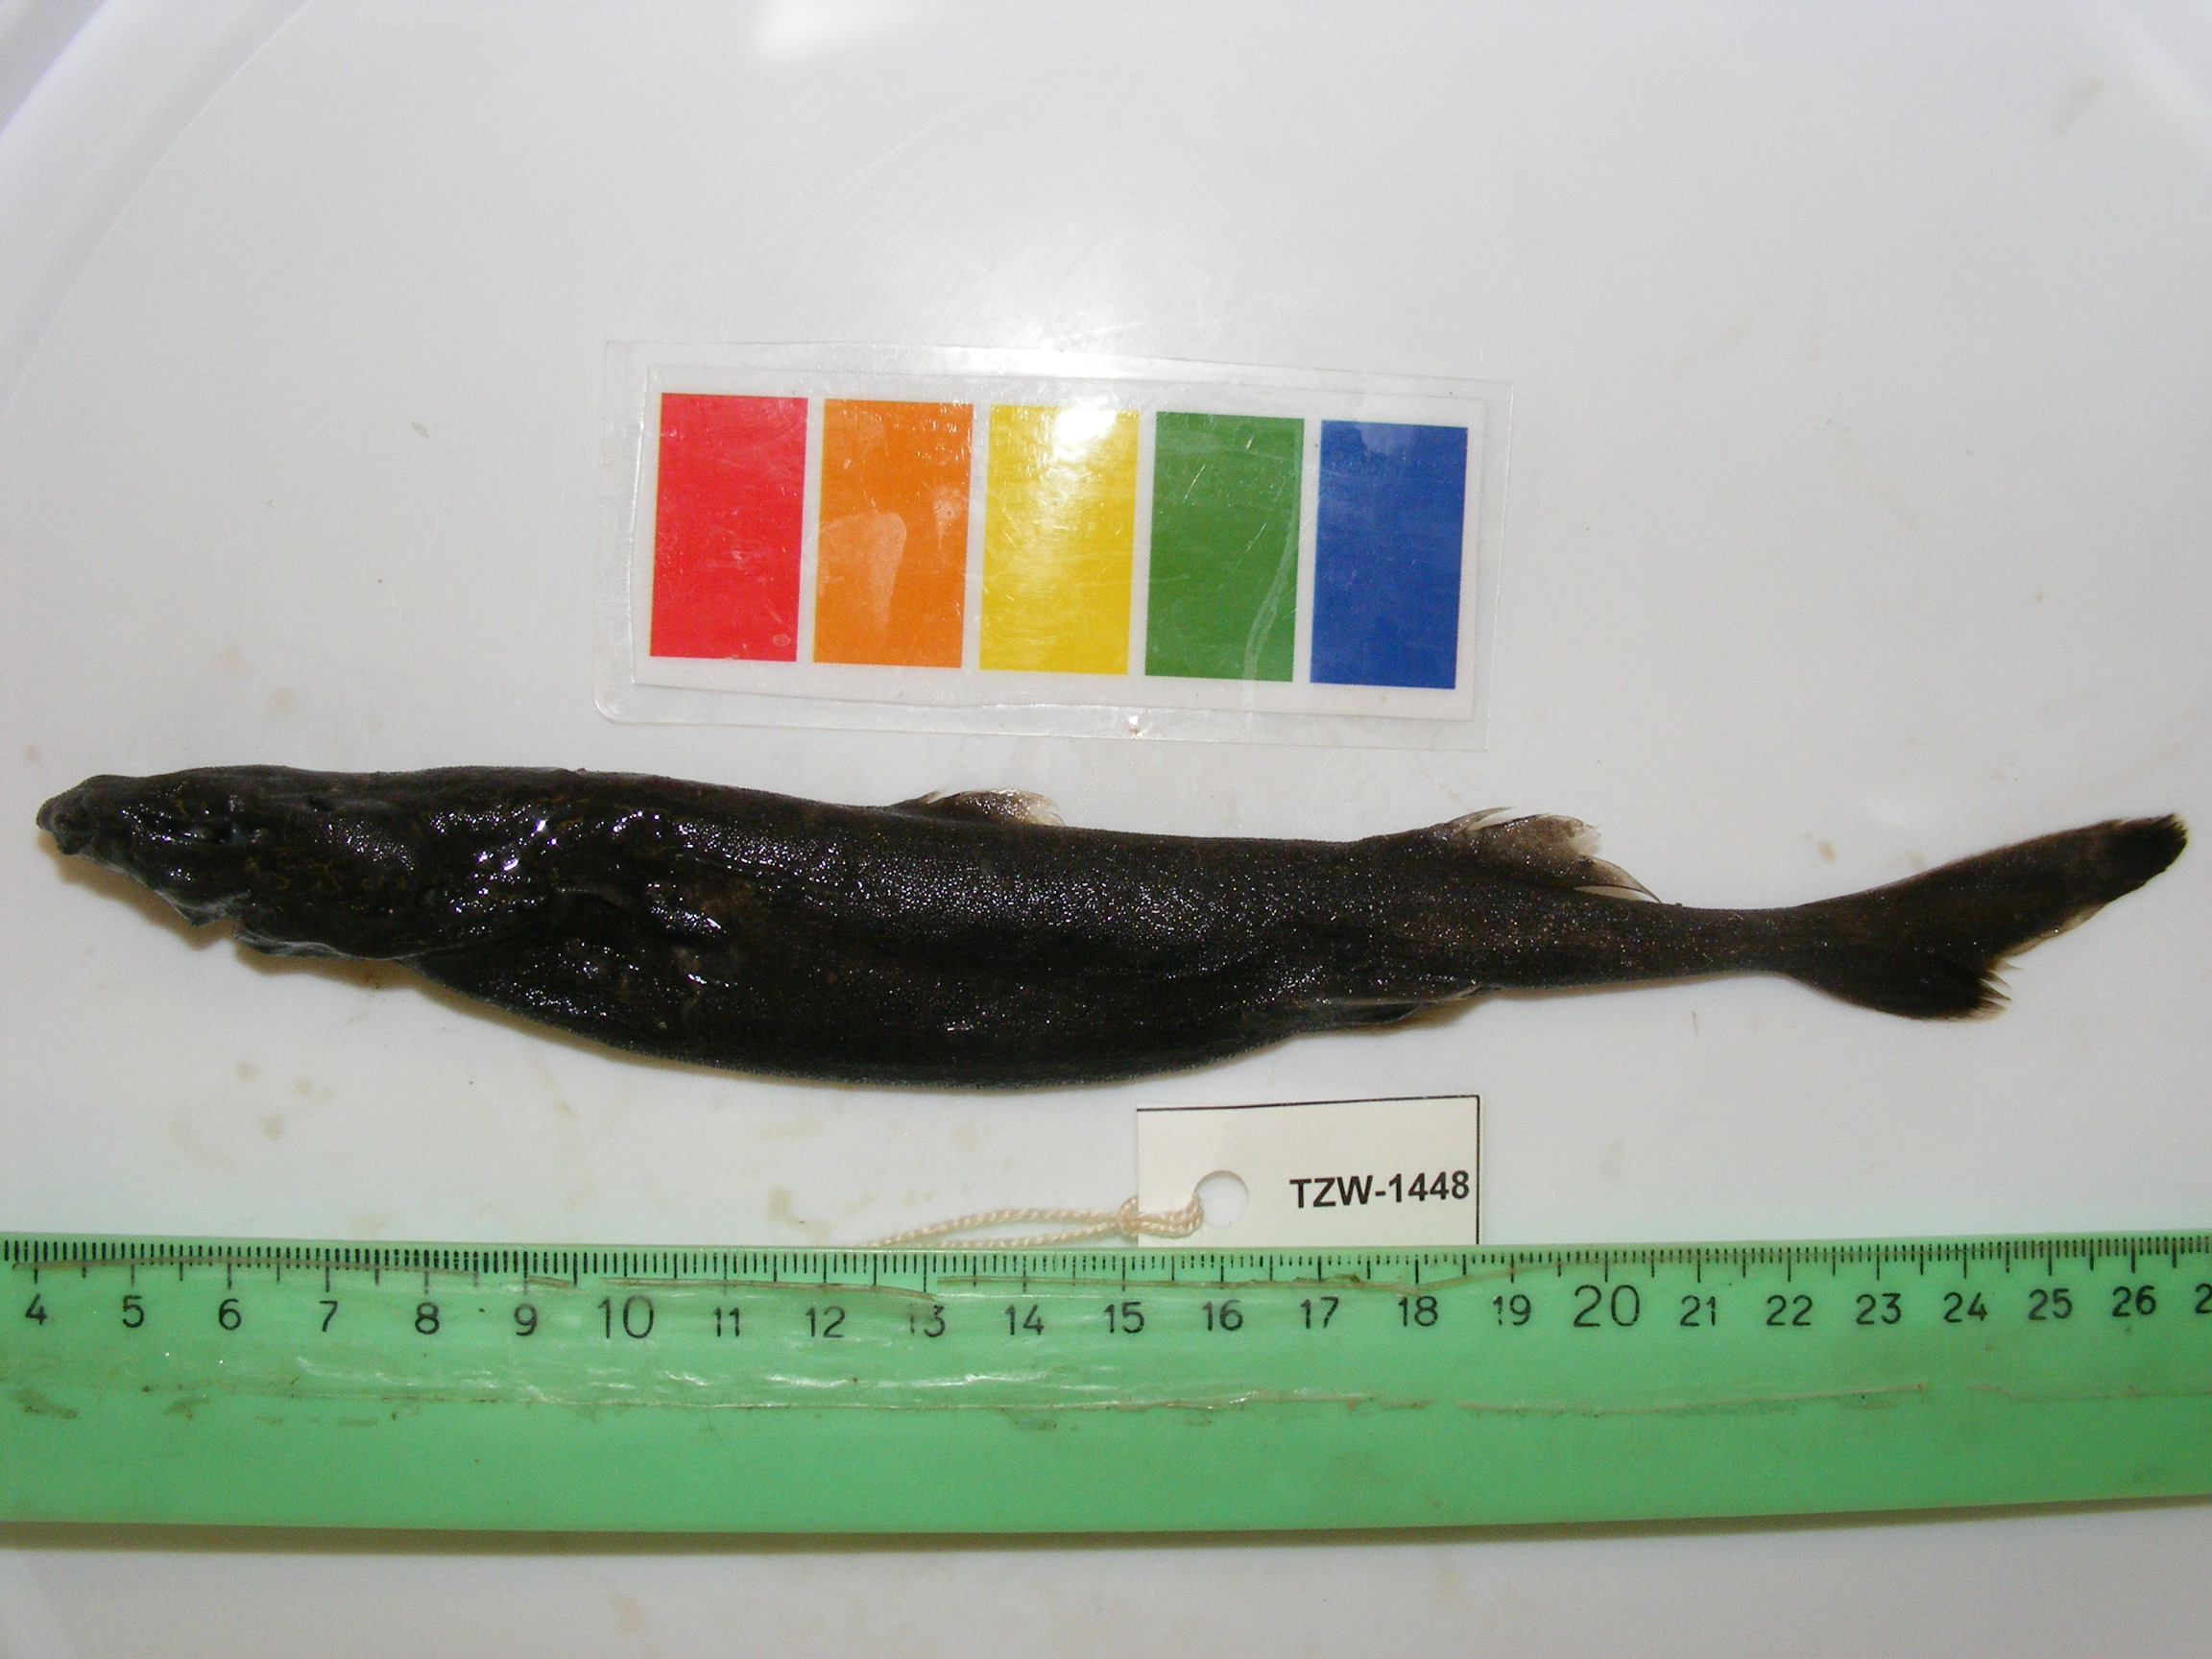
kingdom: Animalia
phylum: Chordata
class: Elasmobranchii
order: Squaliformes
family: Etmopteridae
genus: Etmopterus
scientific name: Etmopterus compagnoi
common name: Broadbanded lanternshark
